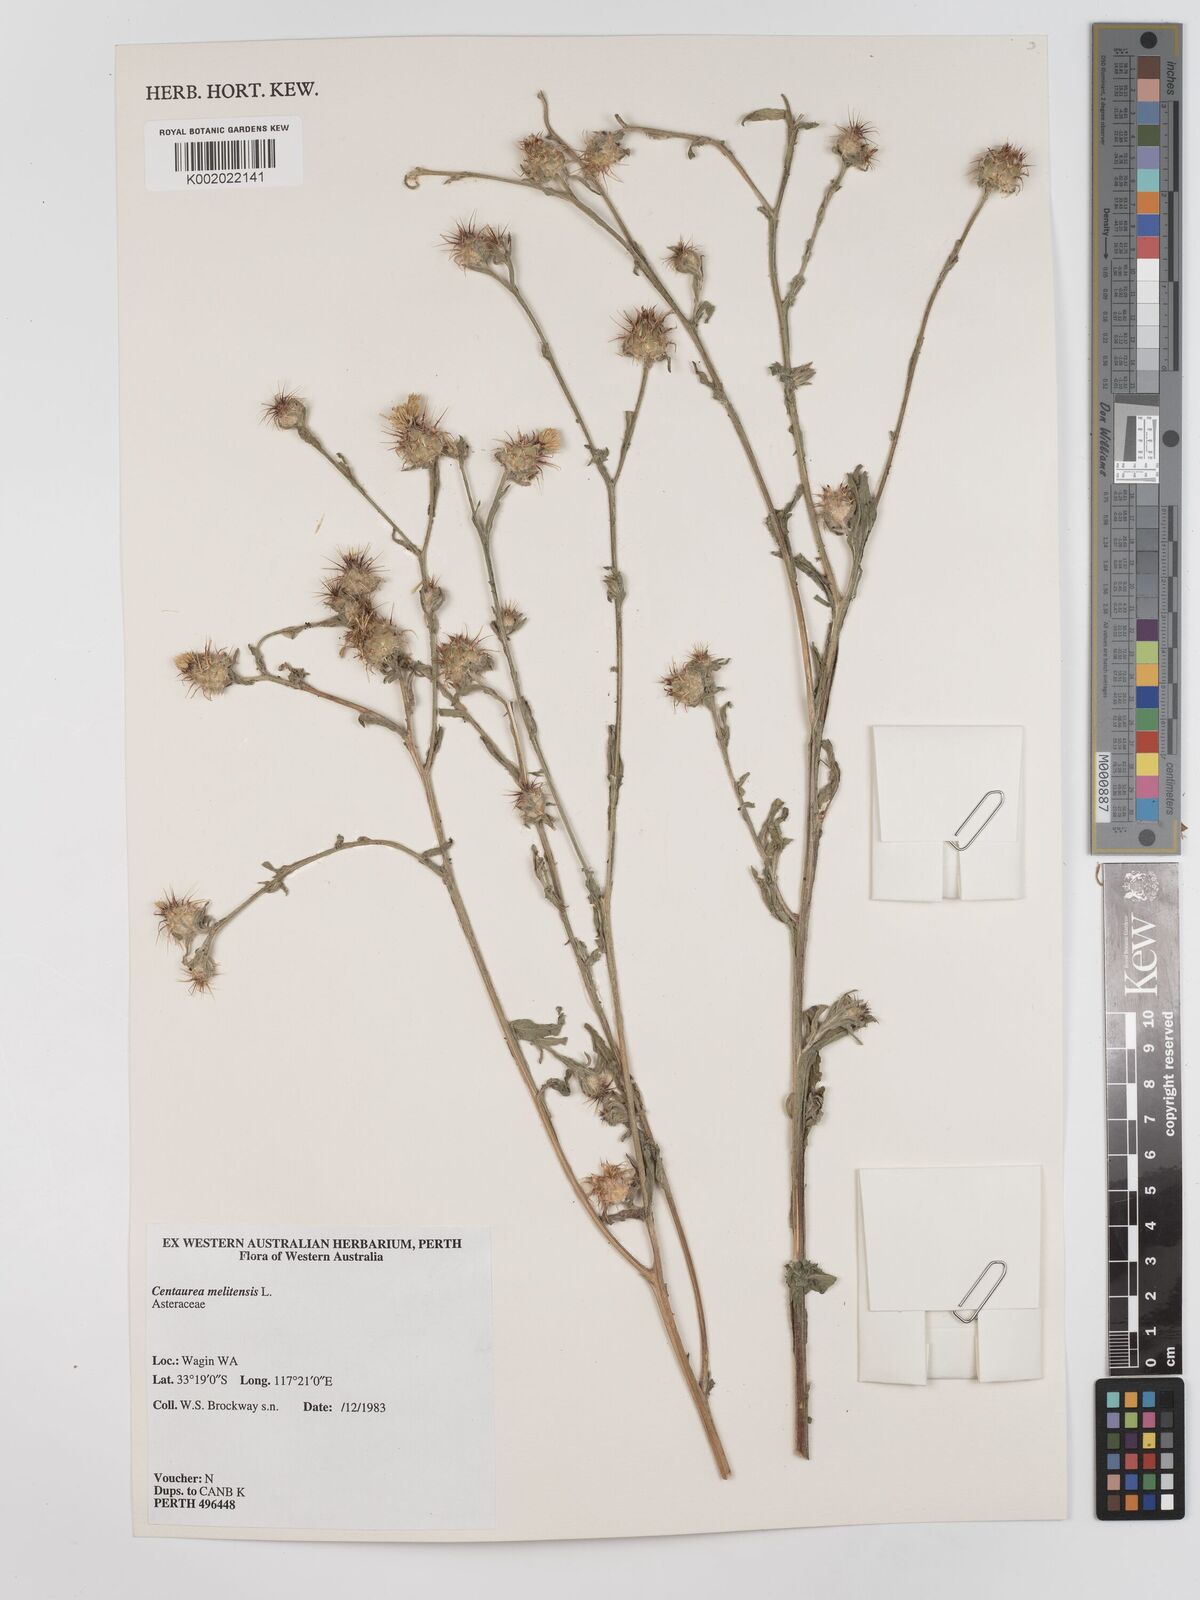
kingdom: Plantae
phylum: Tracheophyta
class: Magnoliopsida
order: Asterales
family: Asteraceae
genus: Centaurea
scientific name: Centaurea melitensis
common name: Maltese star-thistle
